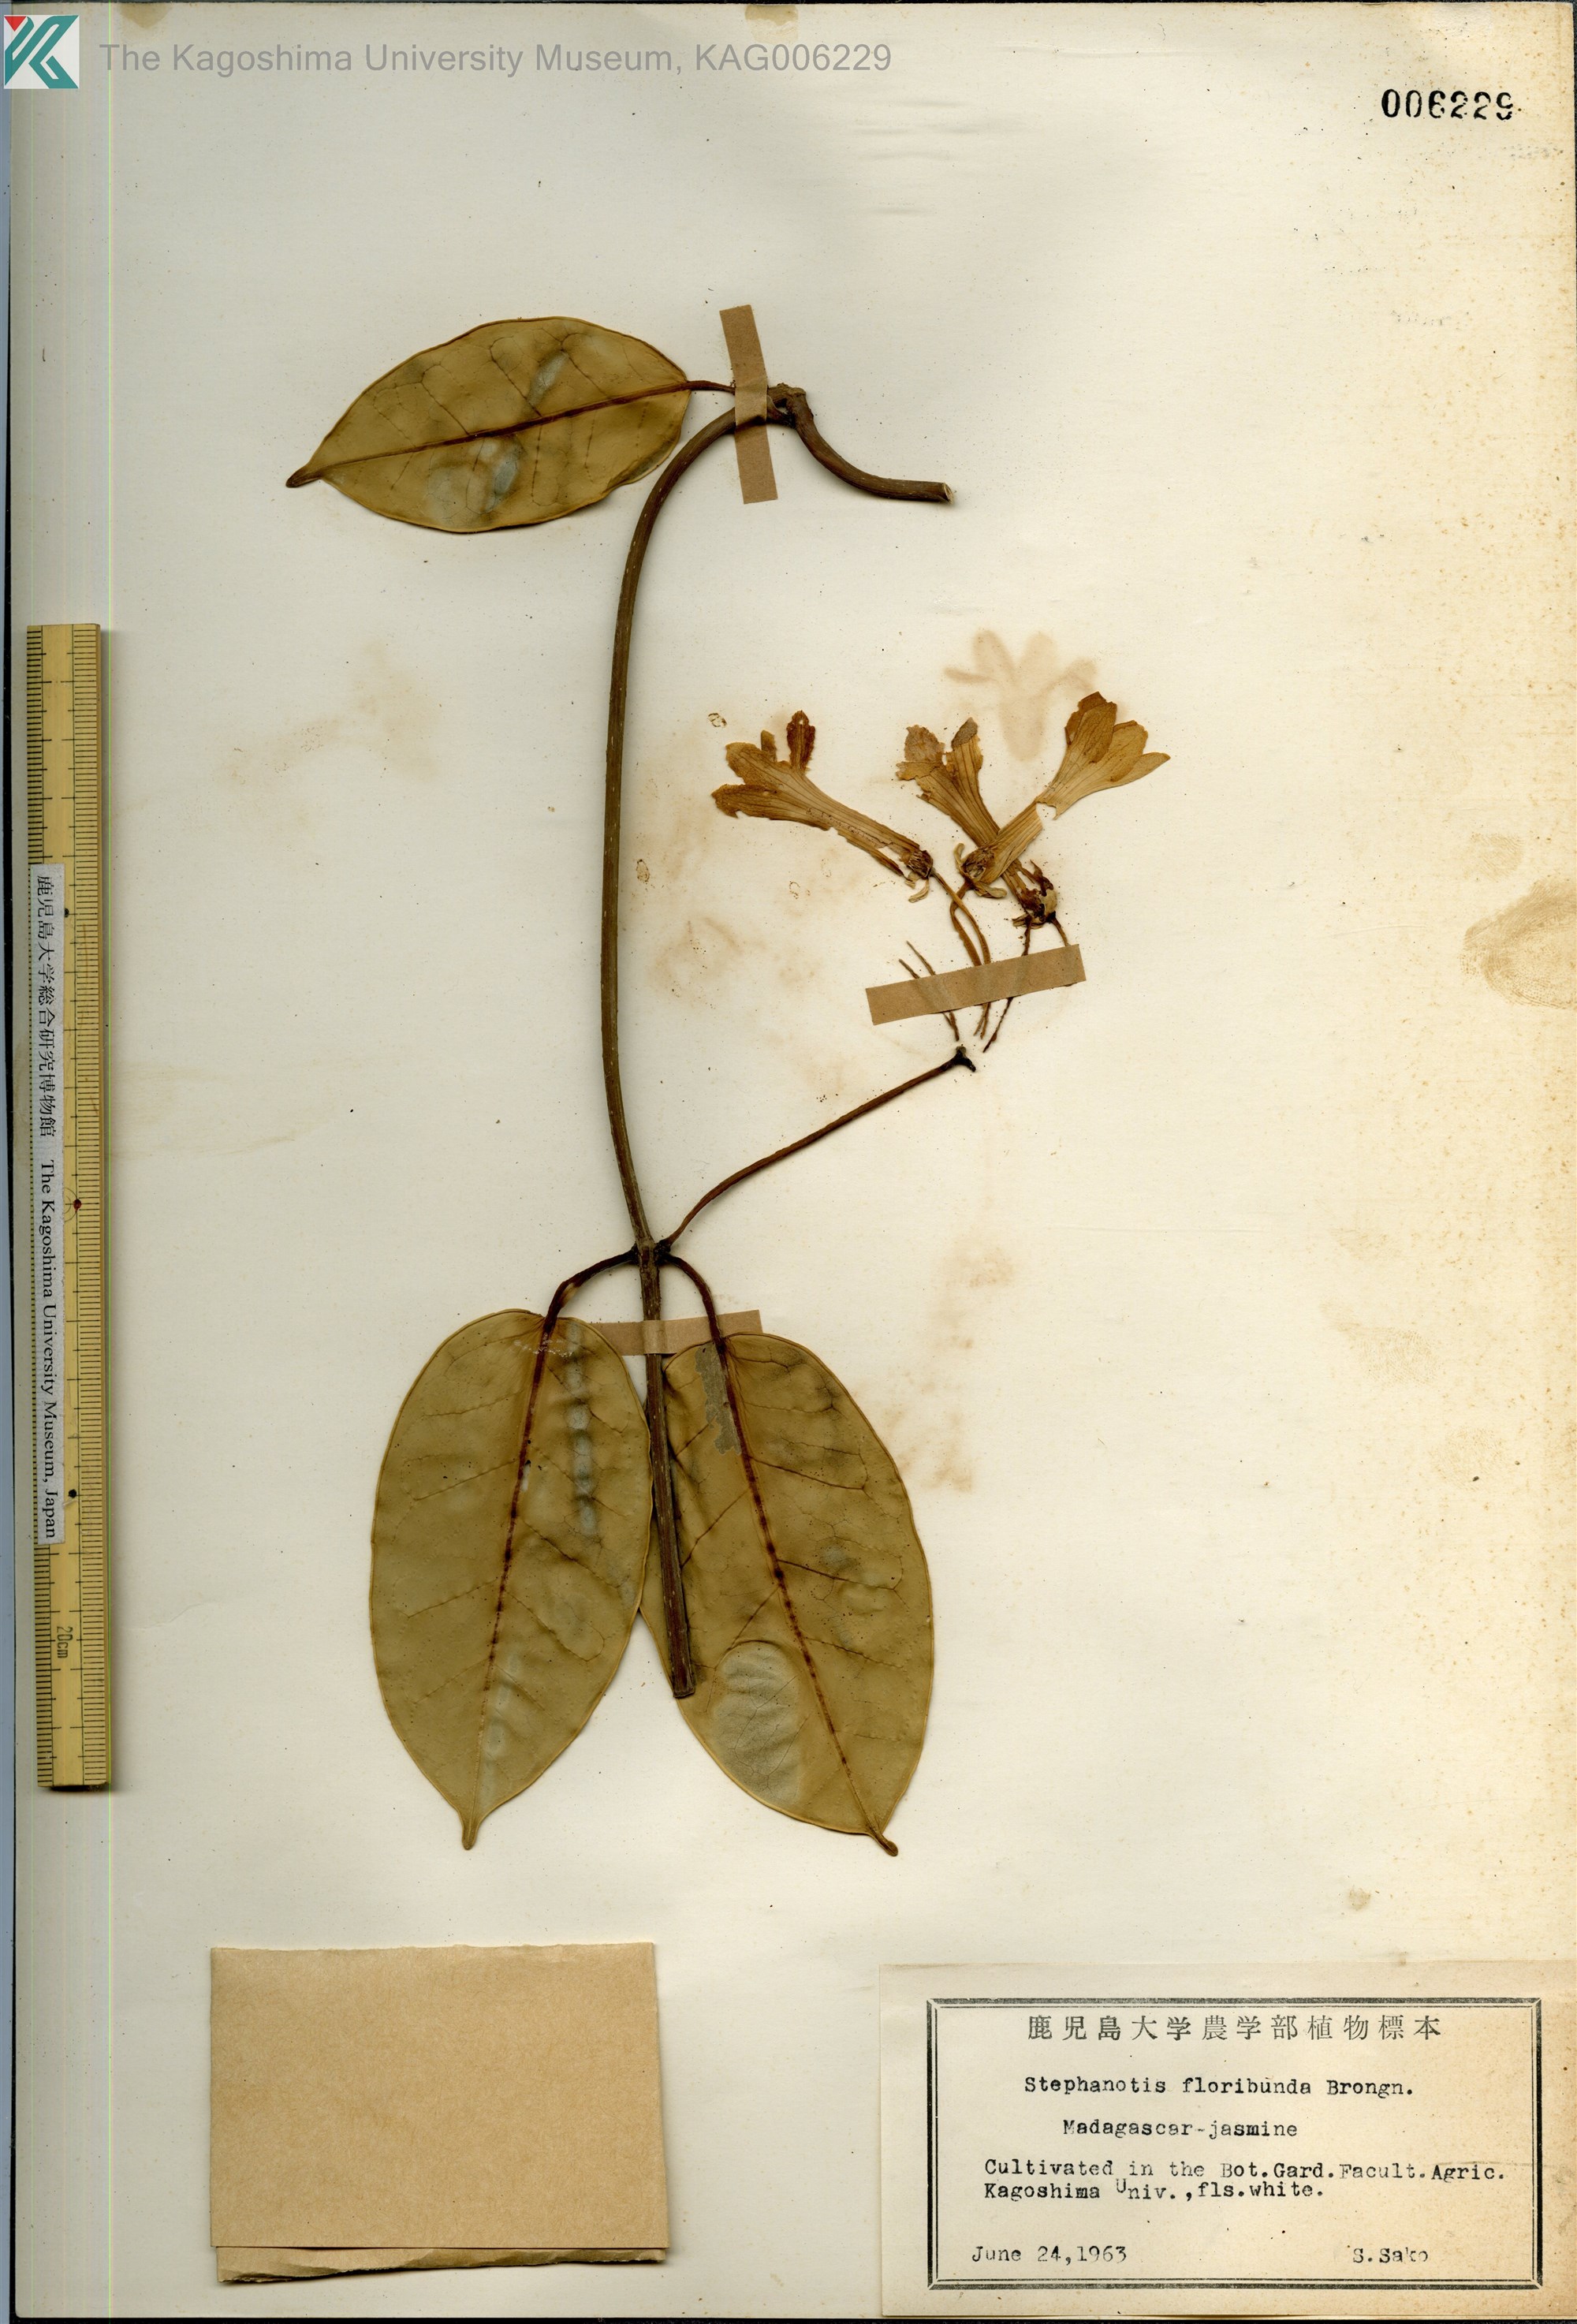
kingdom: Plantae
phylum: Tracheophyta
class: Magnoliopsida
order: Gentianales
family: Apocynaceae
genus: Stephanotis
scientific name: Stephanotis floribunda
